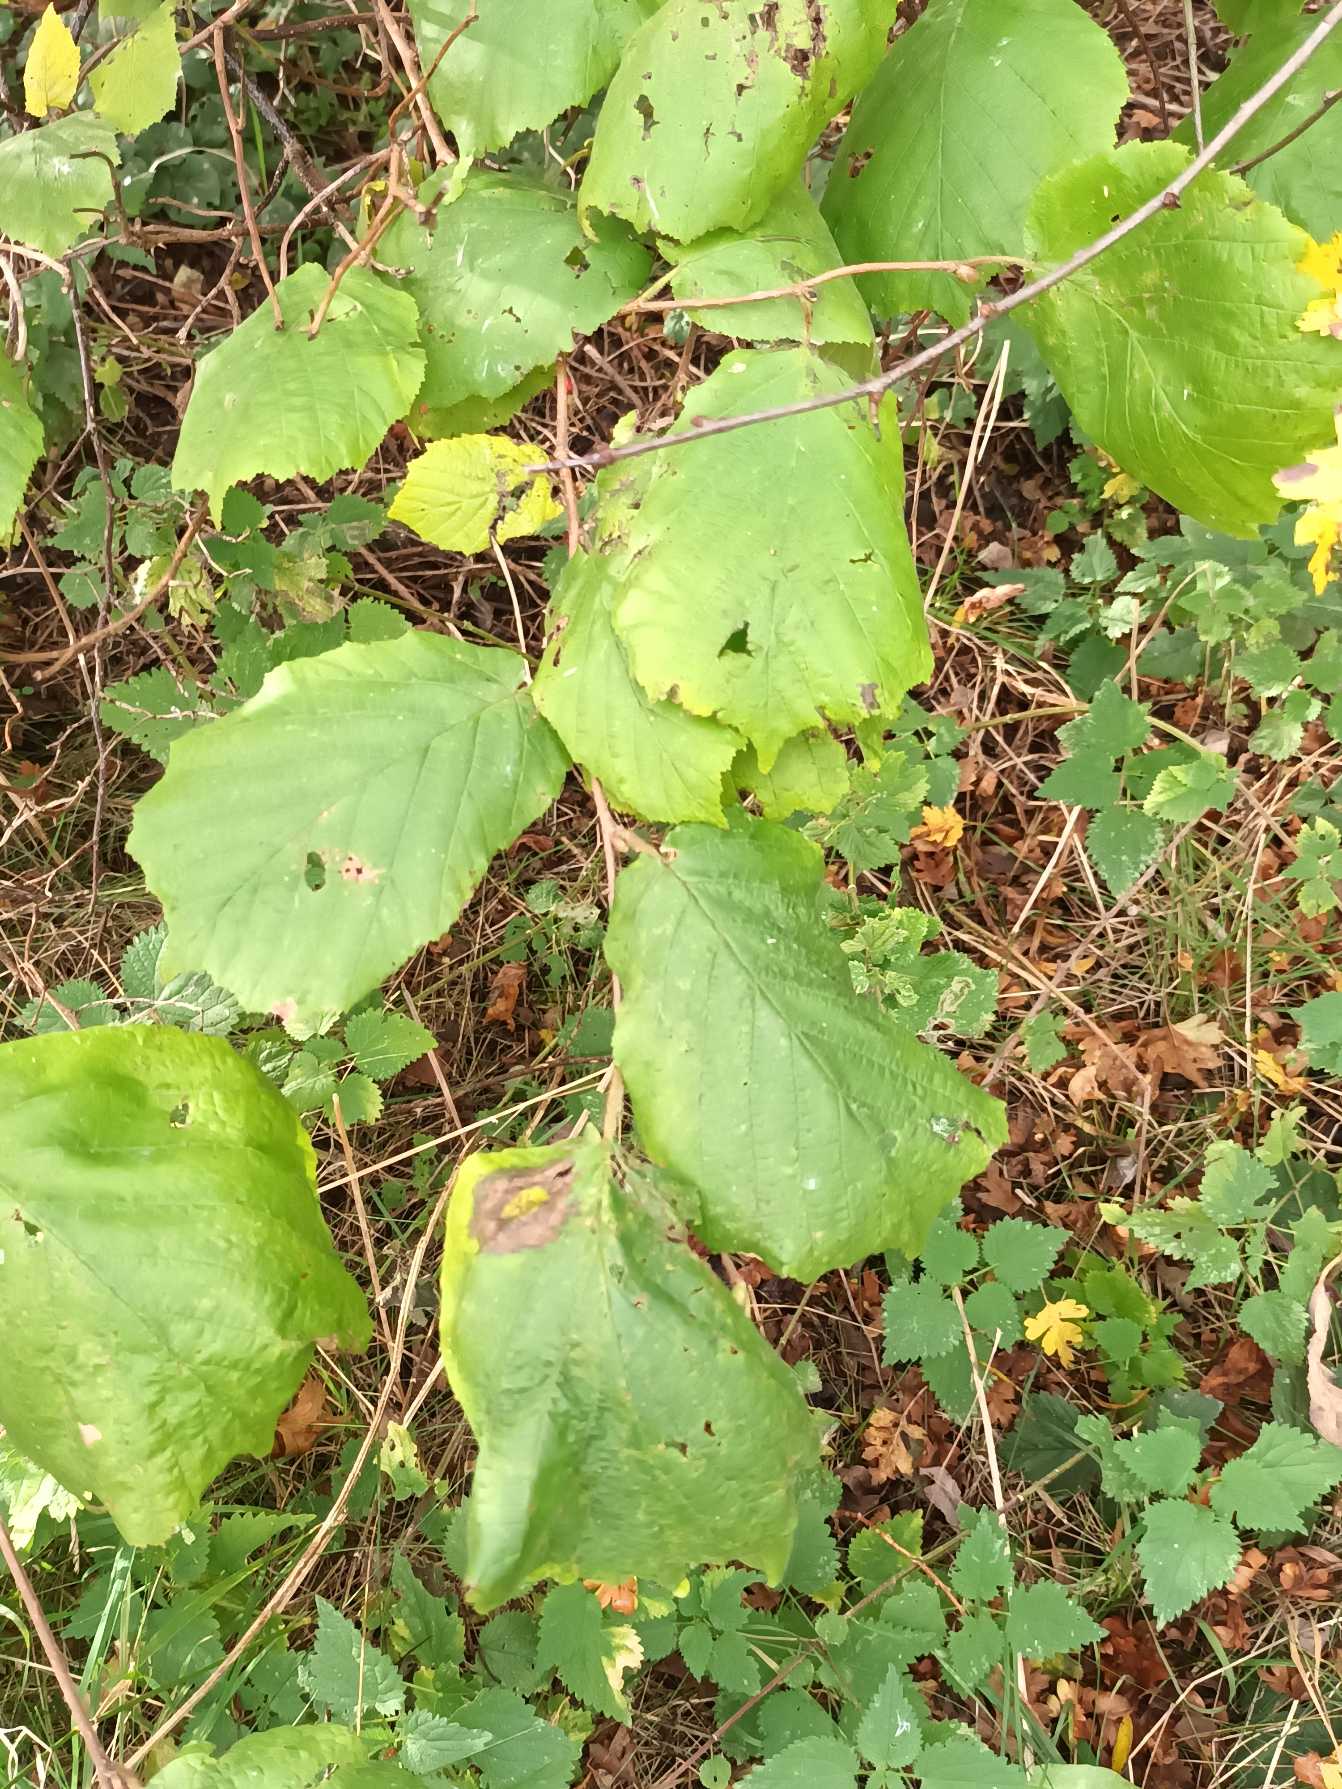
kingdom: Plantae
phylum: Tracheophyta
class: Magnoliopsida
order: Fagales
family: Betulaceae
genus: Corylus
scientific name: Corylus avellana
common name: Hassel
